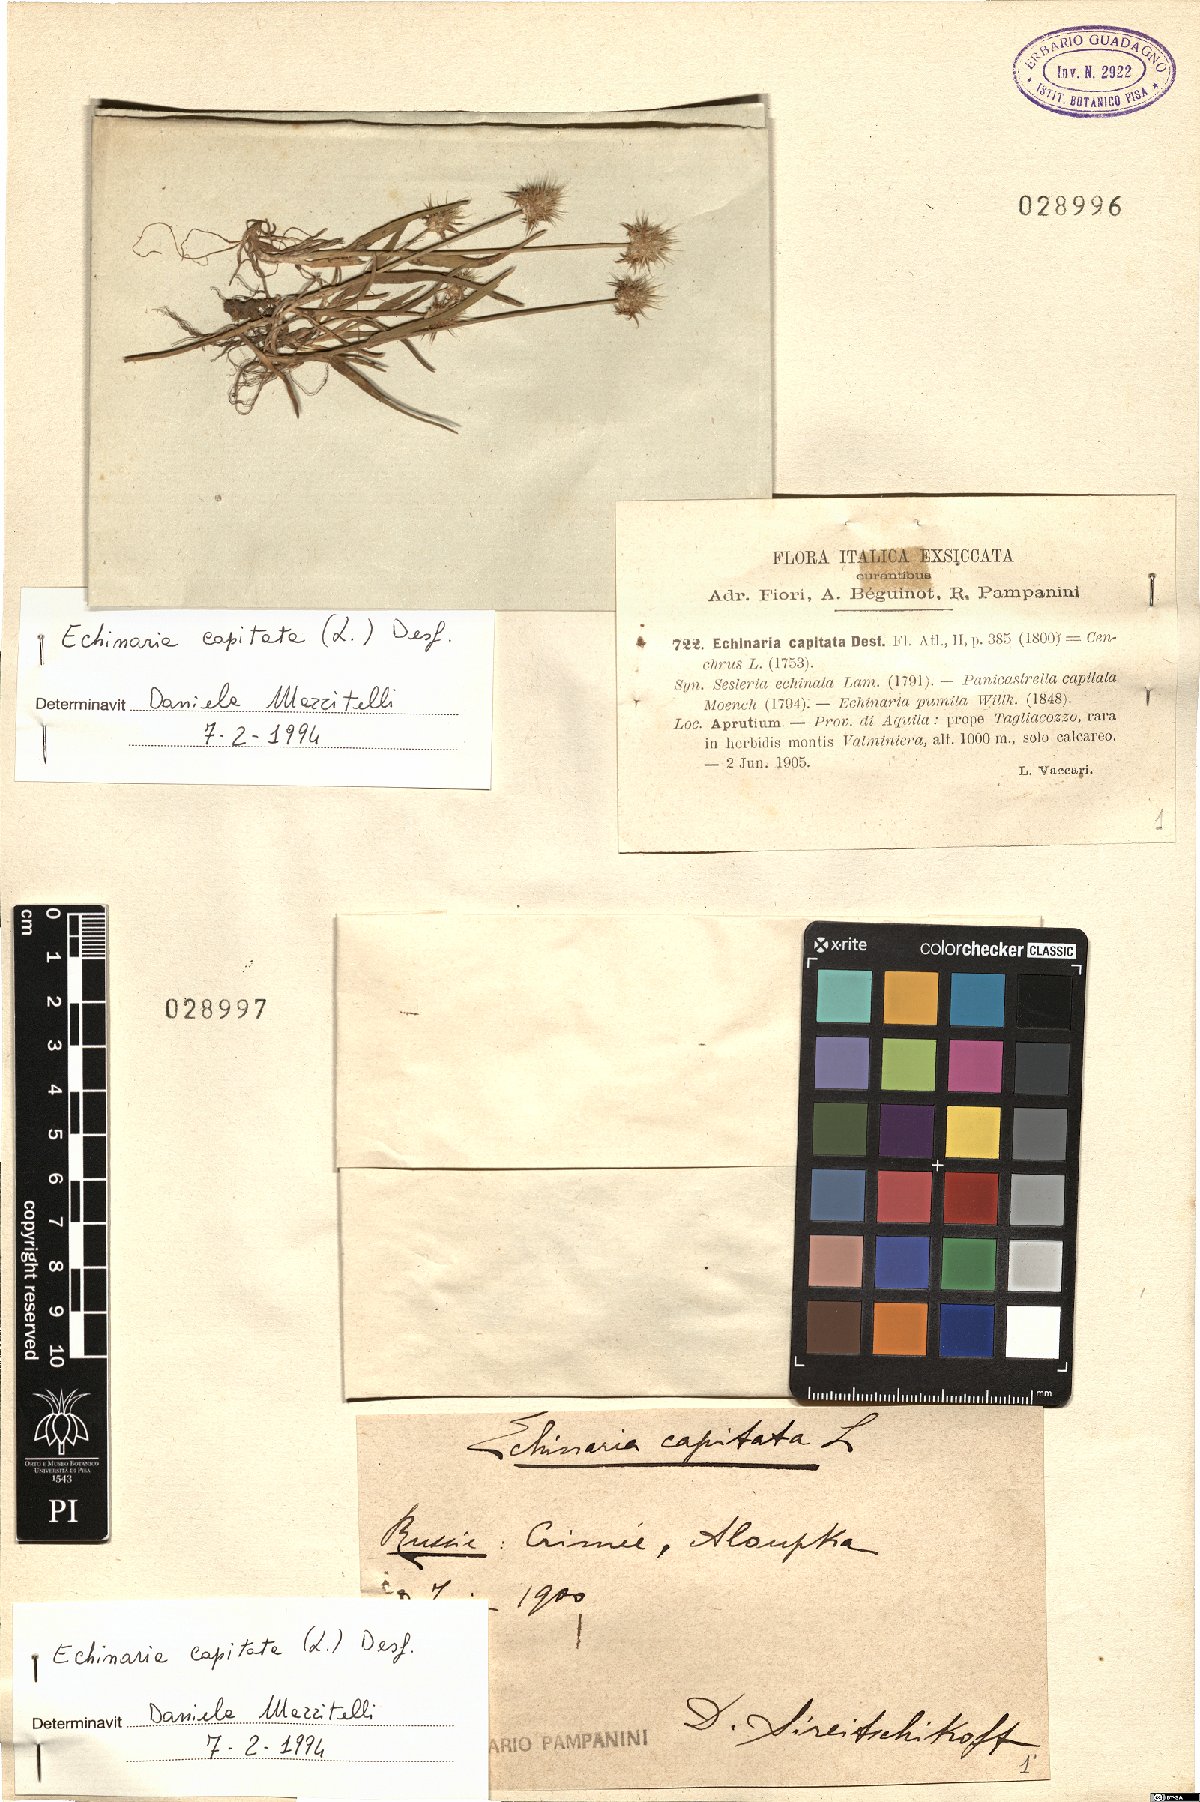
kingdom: Plantae
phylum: Tracheophyta
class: Liliopsida
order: Poales
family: Poaceae
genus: Echinaria
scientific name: Echinaria capitata
